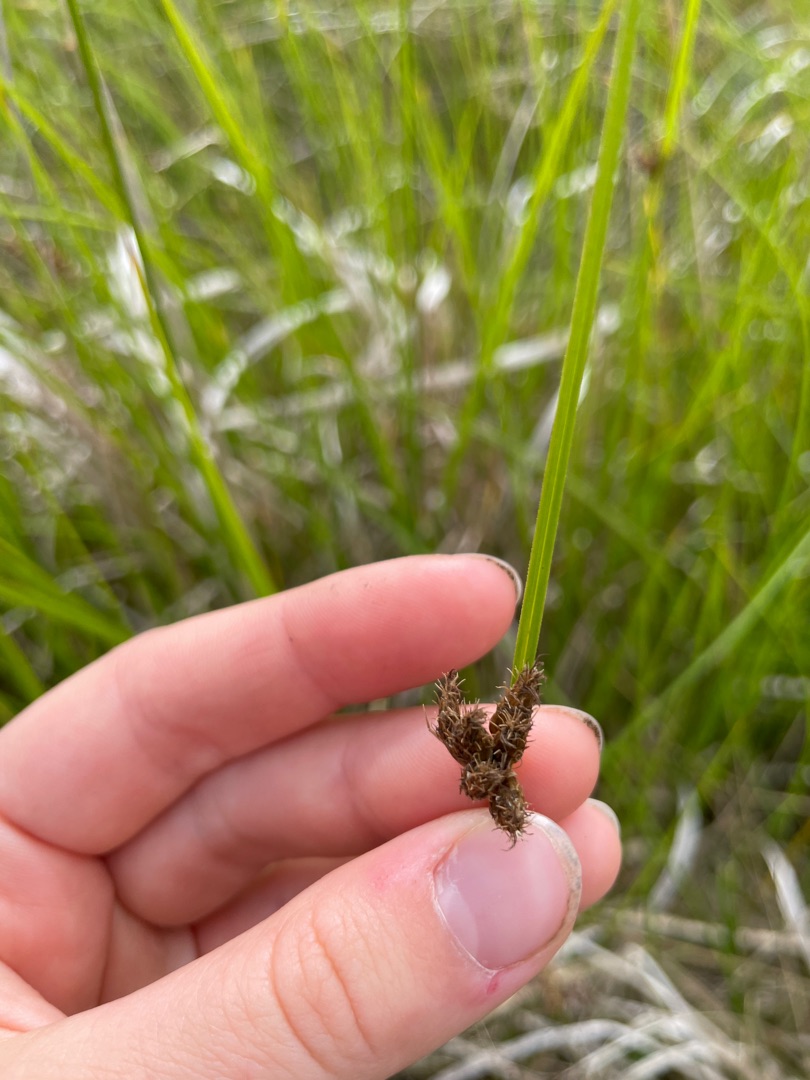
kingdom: Plantae
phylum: Tracheophyta
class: Liliopsida
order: Poales
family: Cyperaceae
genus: Bolboschoenus
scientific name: Bolboschoenus maritimus
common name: Strand-kogleaks
